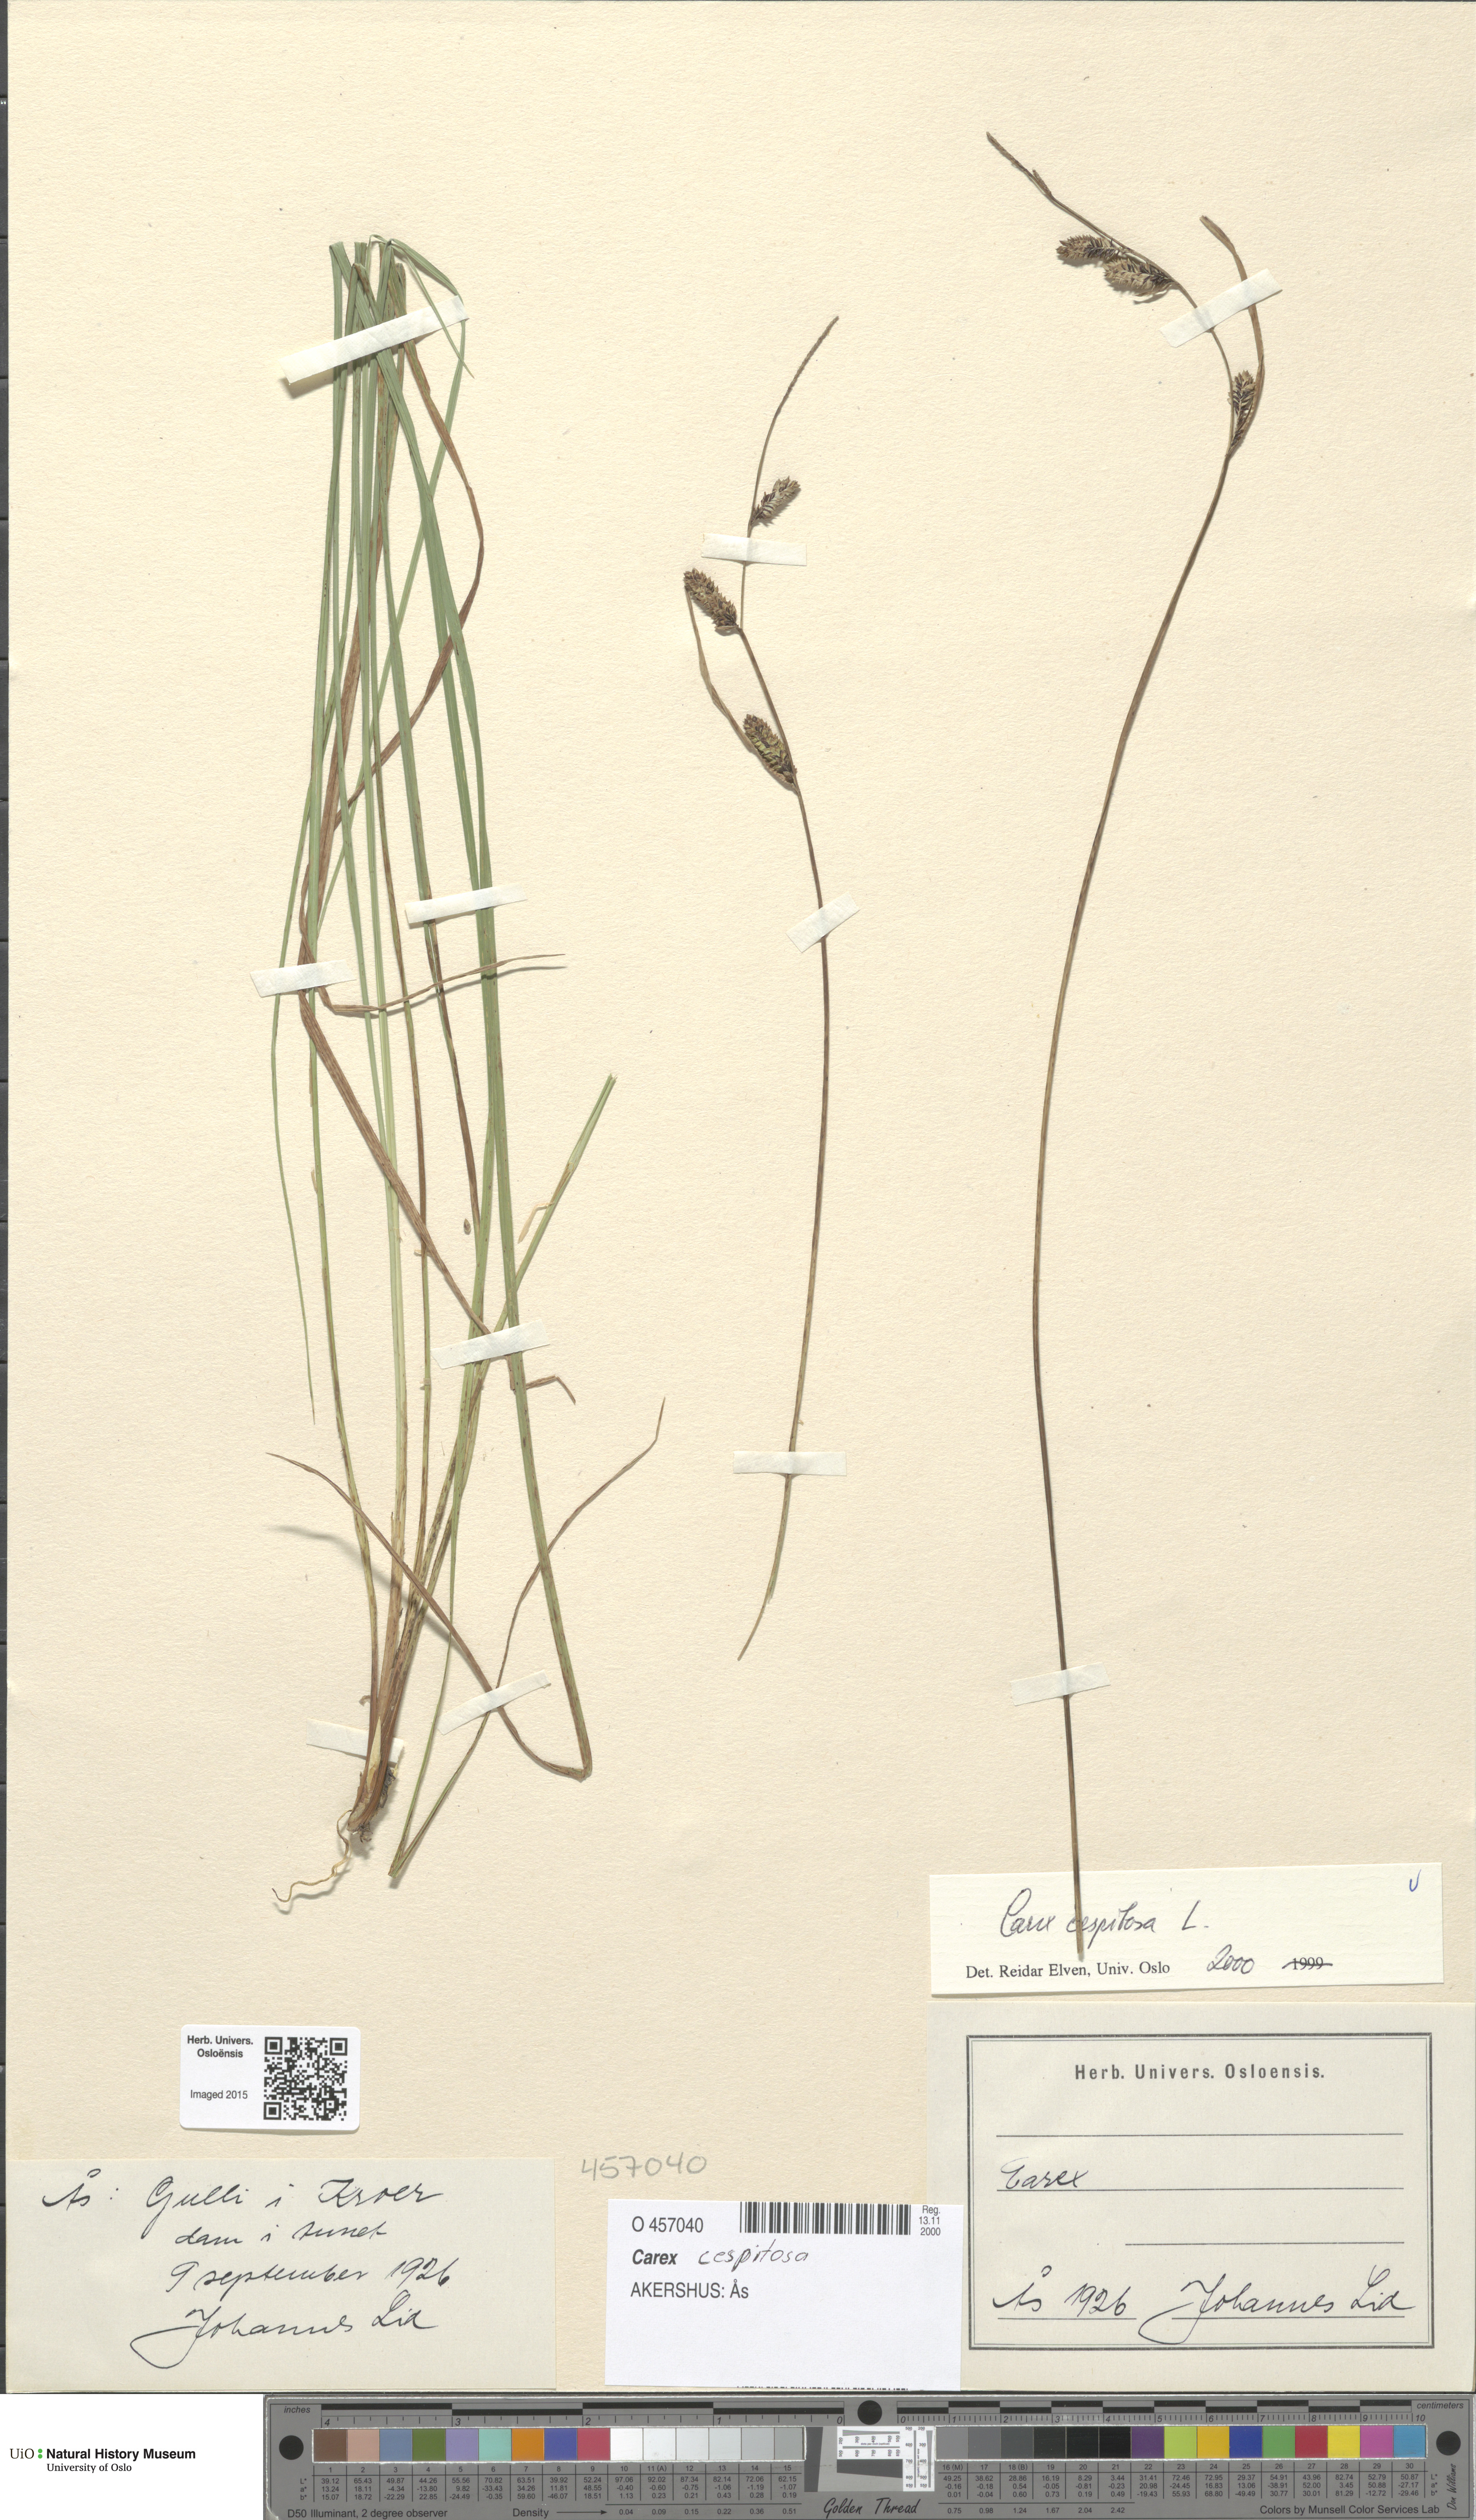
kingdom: Plantae
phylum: Tracheophyta
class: Liliopsida
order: Poales
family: Cyperaceae
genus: Carex
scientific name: Carex cespitosa
